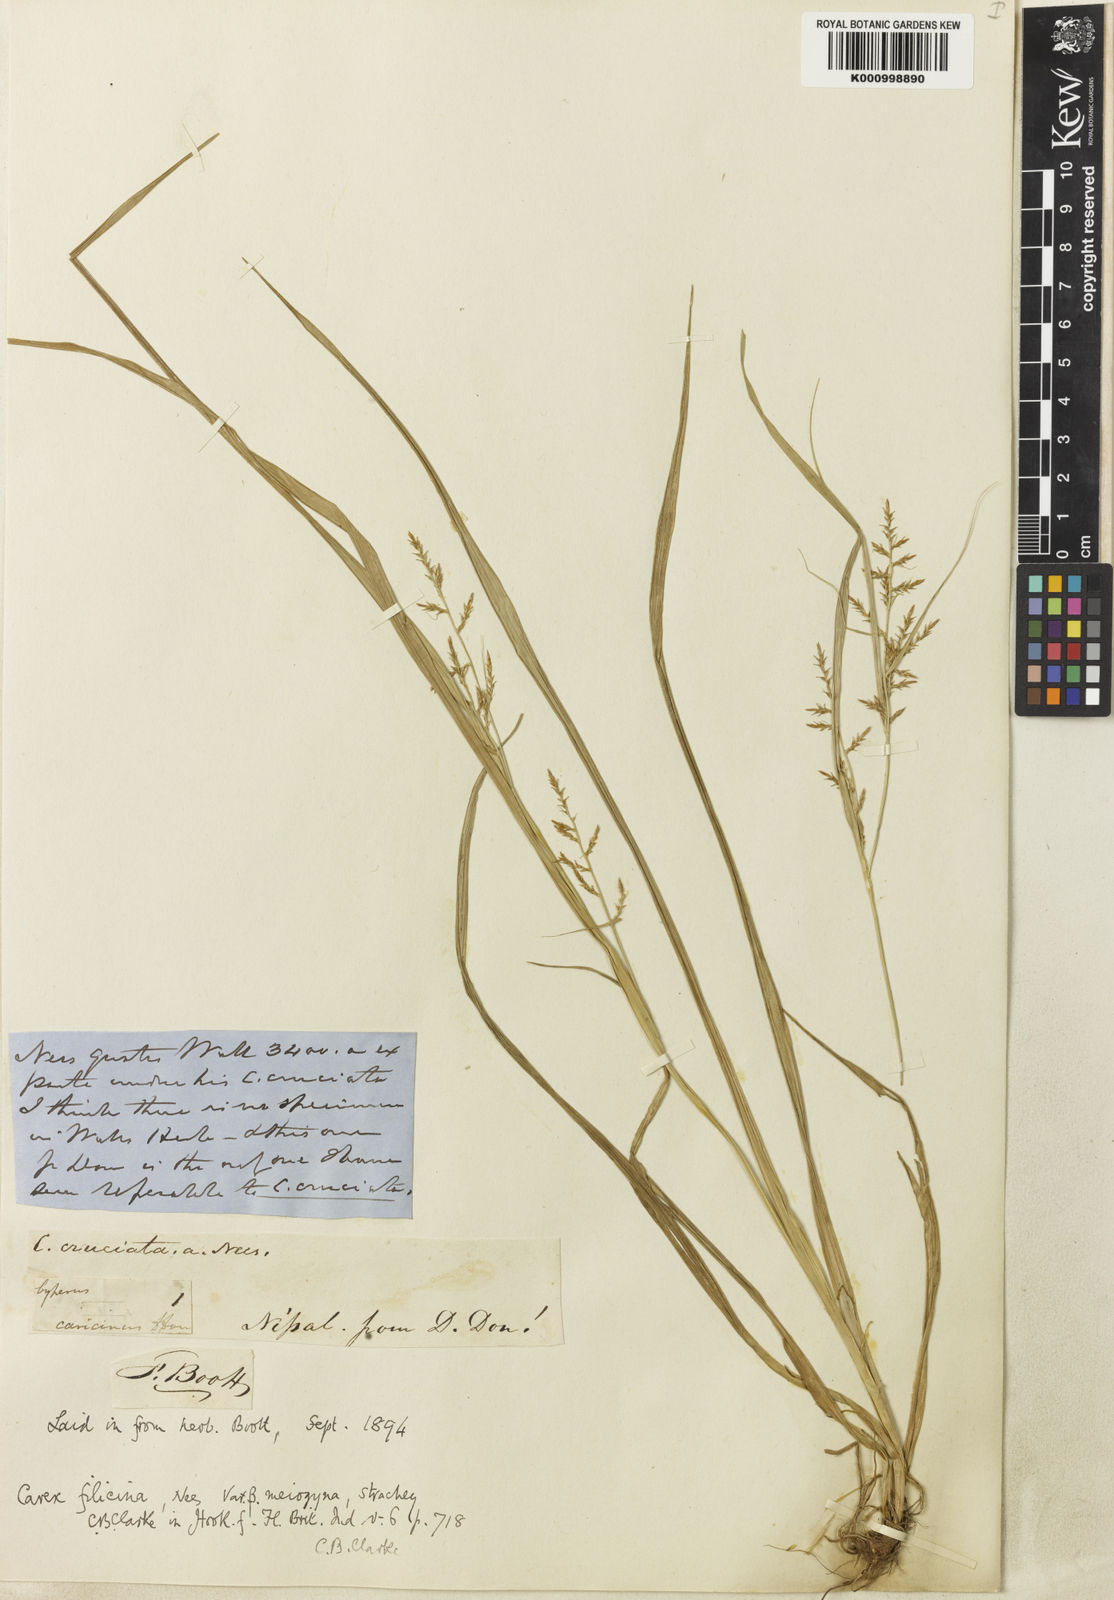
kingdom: Plantae
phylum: Tracheophyta
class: Liliopsida
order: Poales
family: Cyperaceae
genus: Carex
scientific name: Carex filicina
